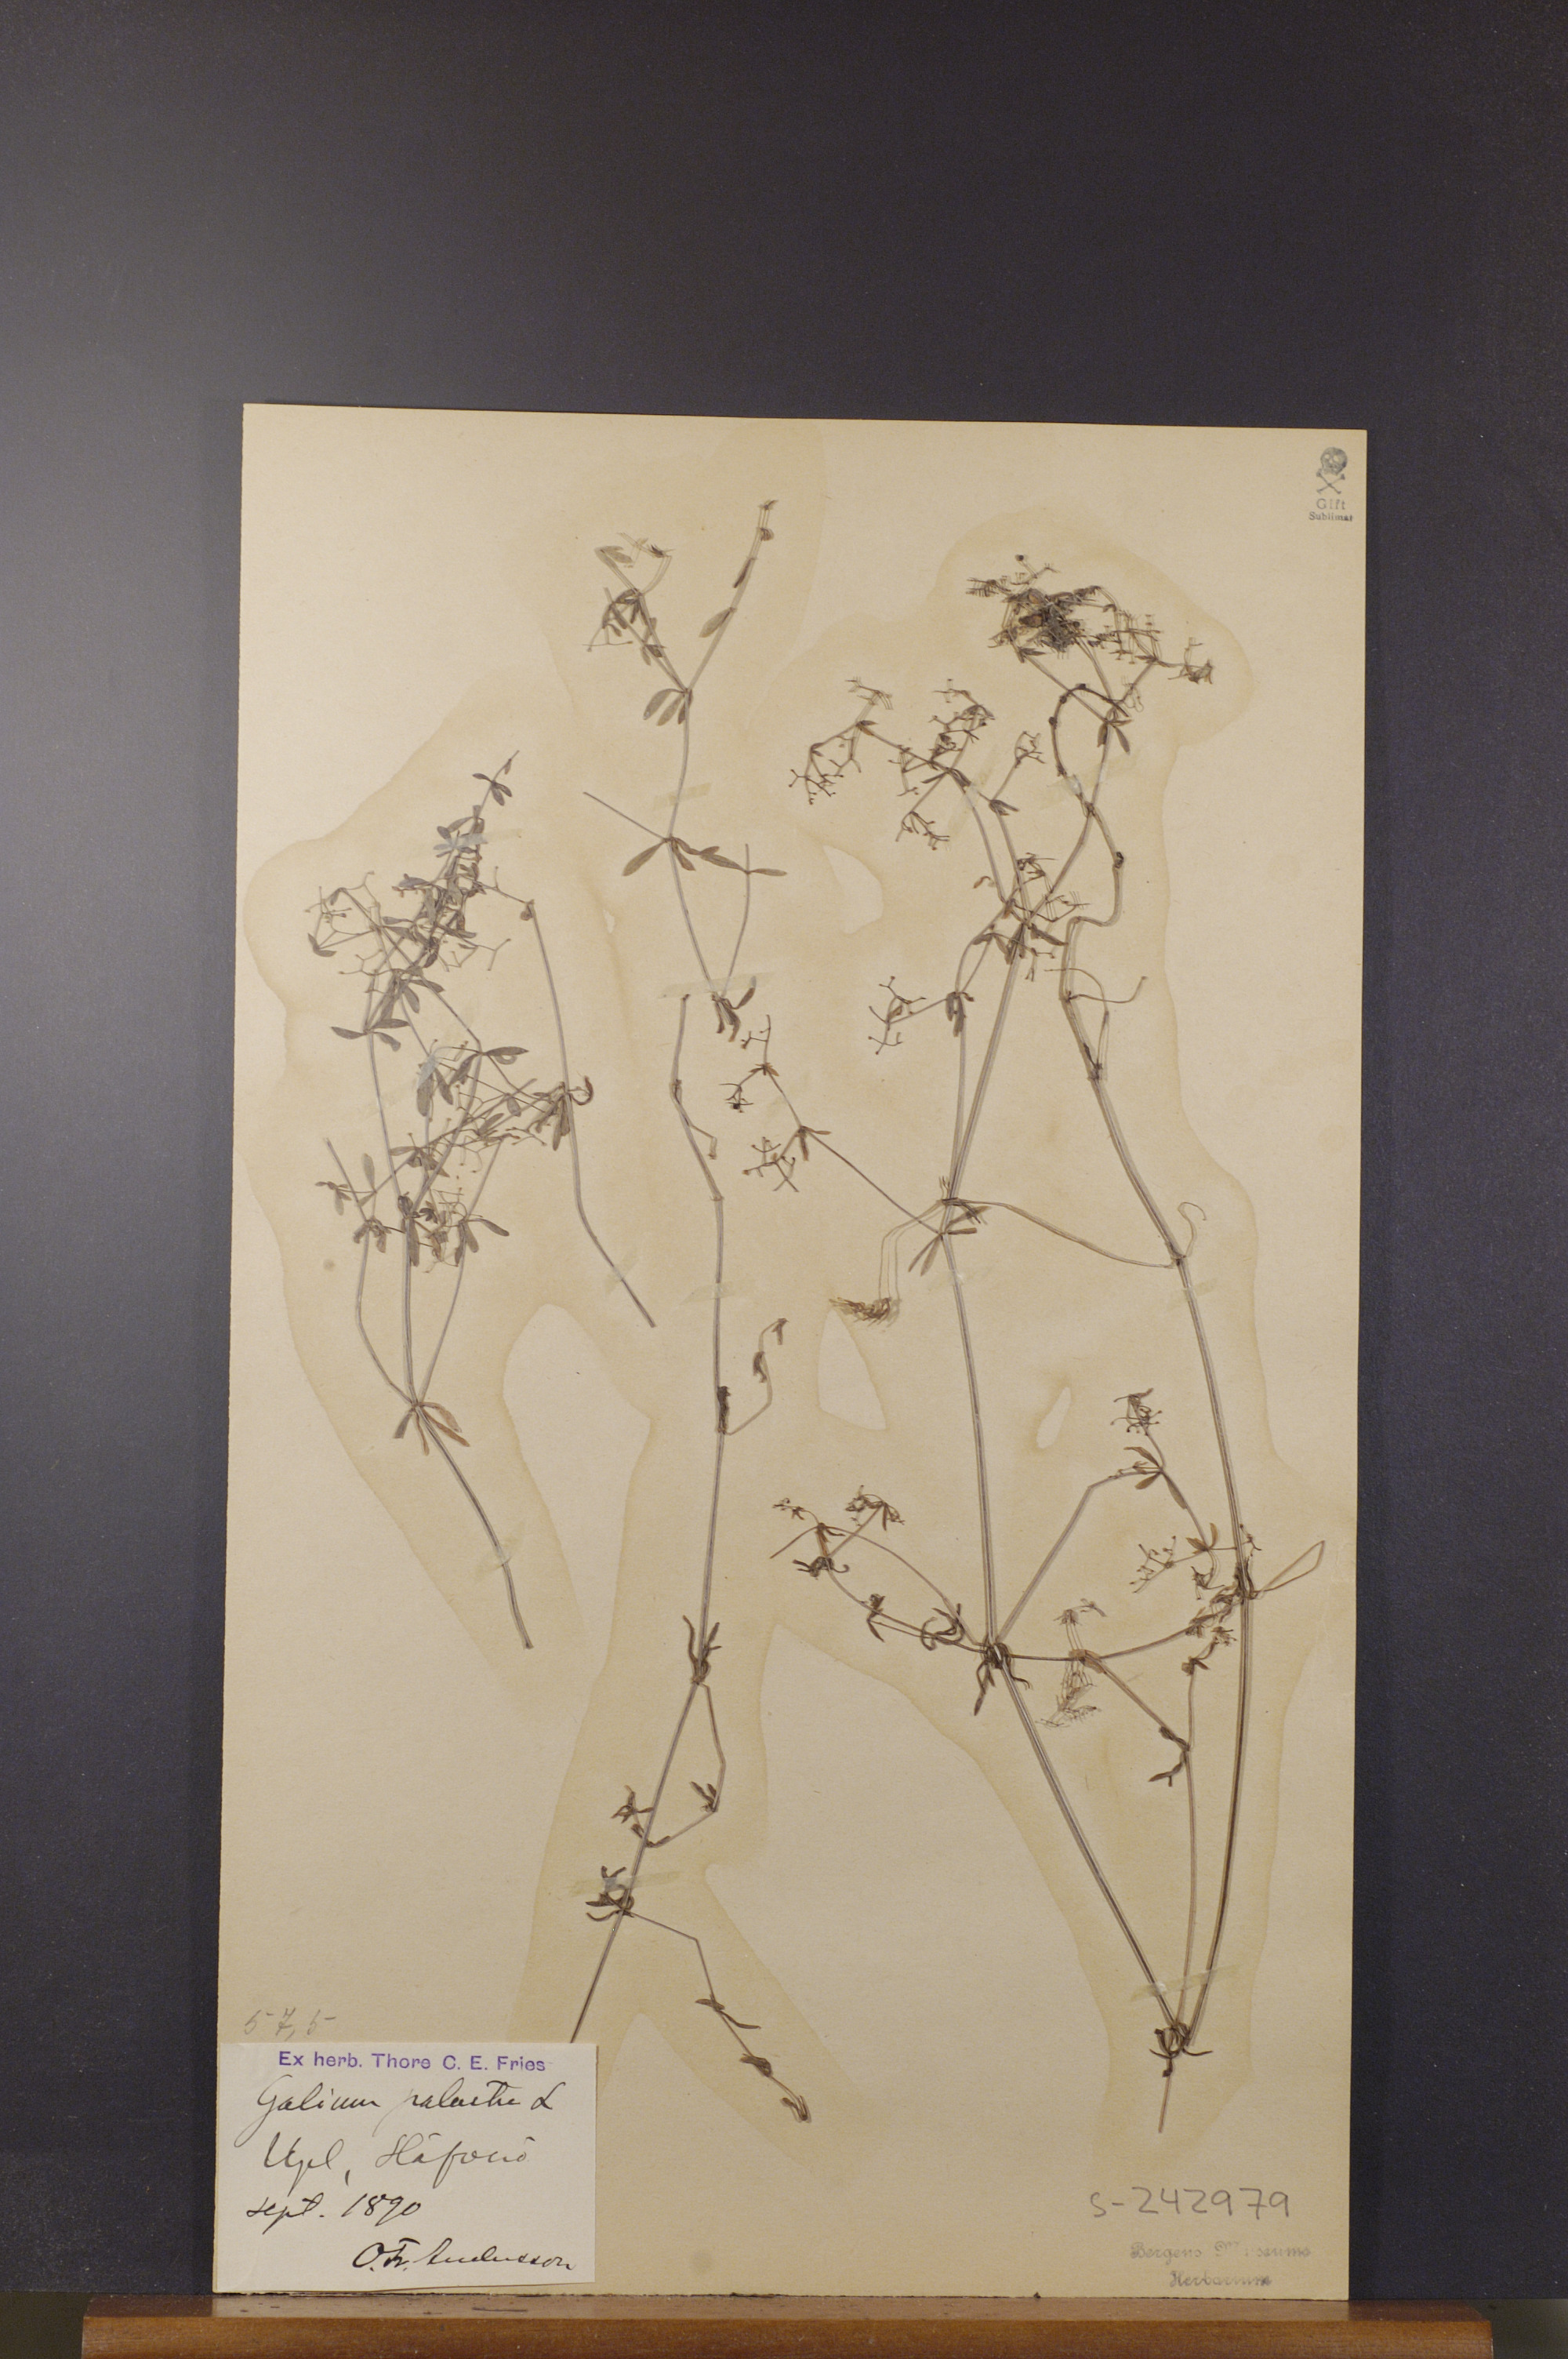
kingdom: Plantae
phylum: Tracheophyta
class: Magnoliopsida
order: Gentianales
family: Rubiaceae
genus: Galium
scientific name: Galium palustre
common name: Common marsh-bedstraw
